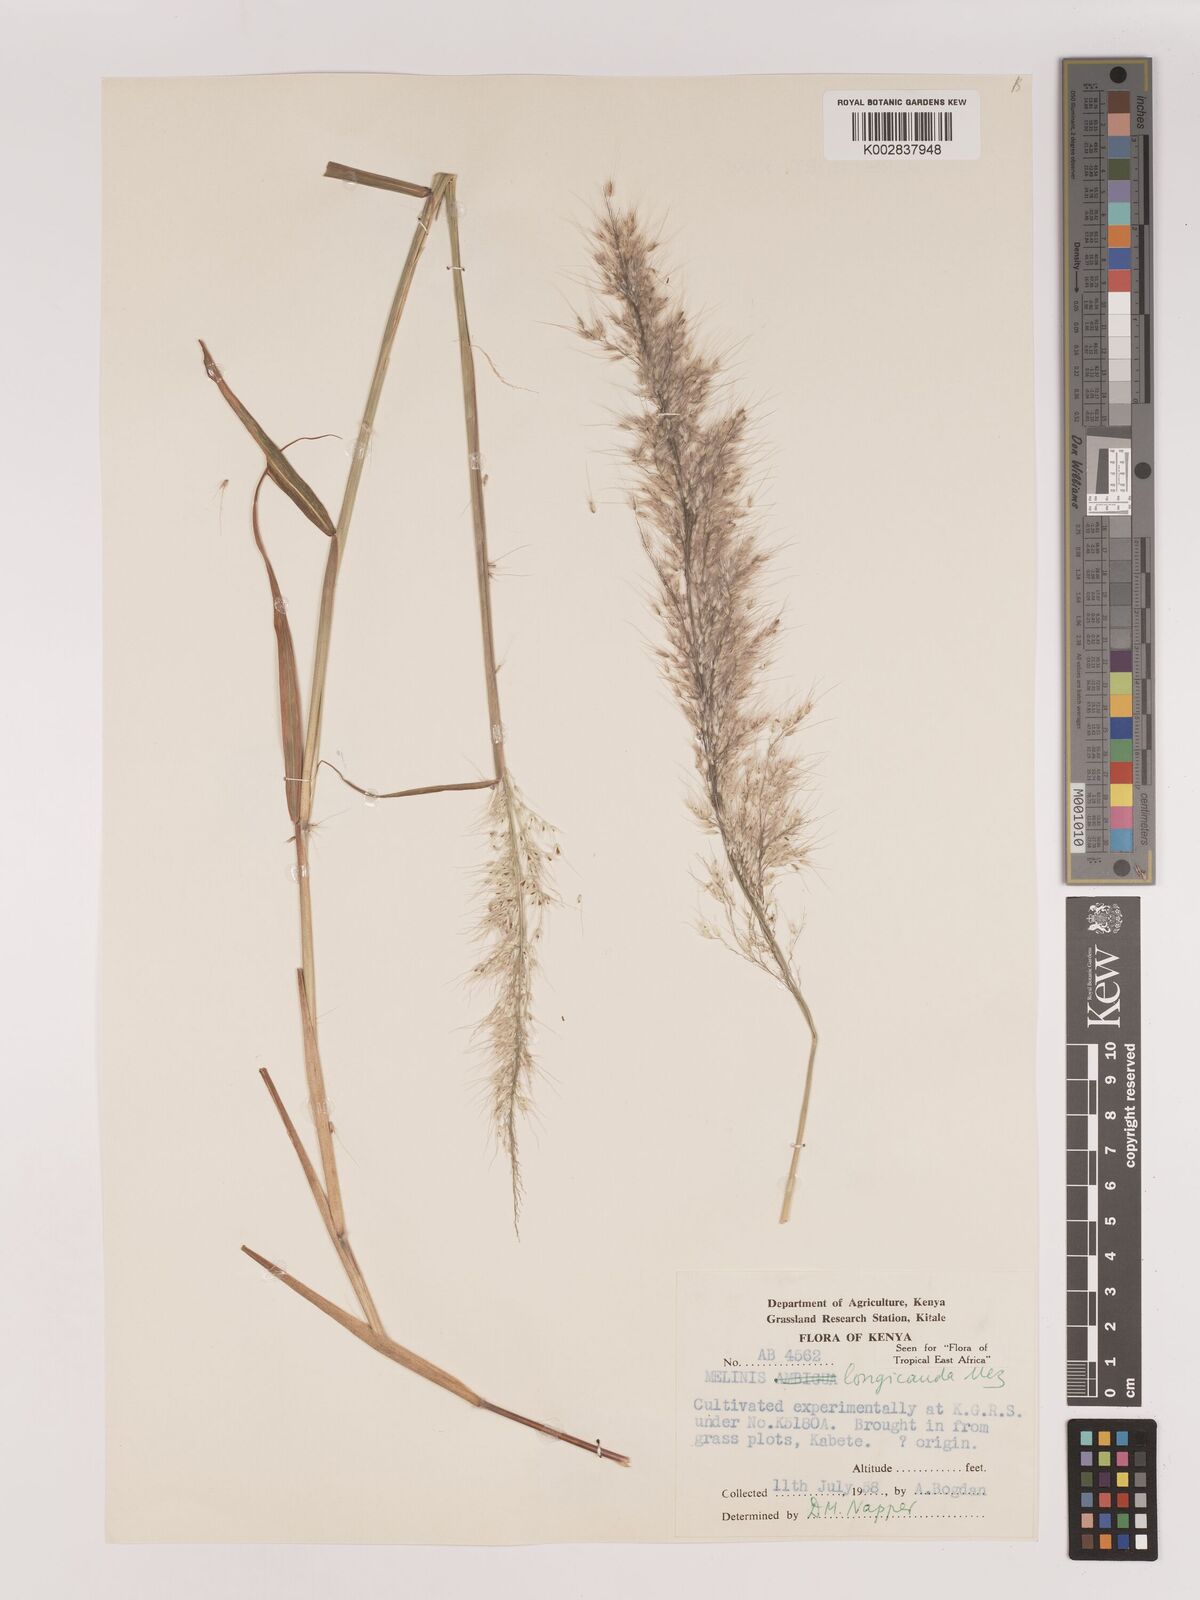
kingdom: Plantae
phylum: Tracheophyta
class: Liliopsida
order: Poales
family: Poaceae
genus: Melinis
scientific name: Melinis ambigua
